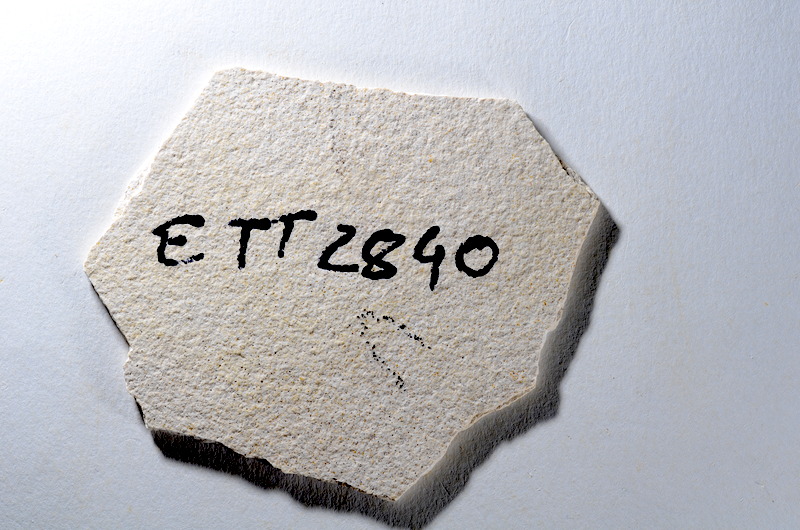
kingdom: Animalia
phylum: Chordata
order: Salmoniformes
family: Orthogonikleithridae
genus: Orthogonikleithrus
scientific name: Orthogonikleithrus hoelli
